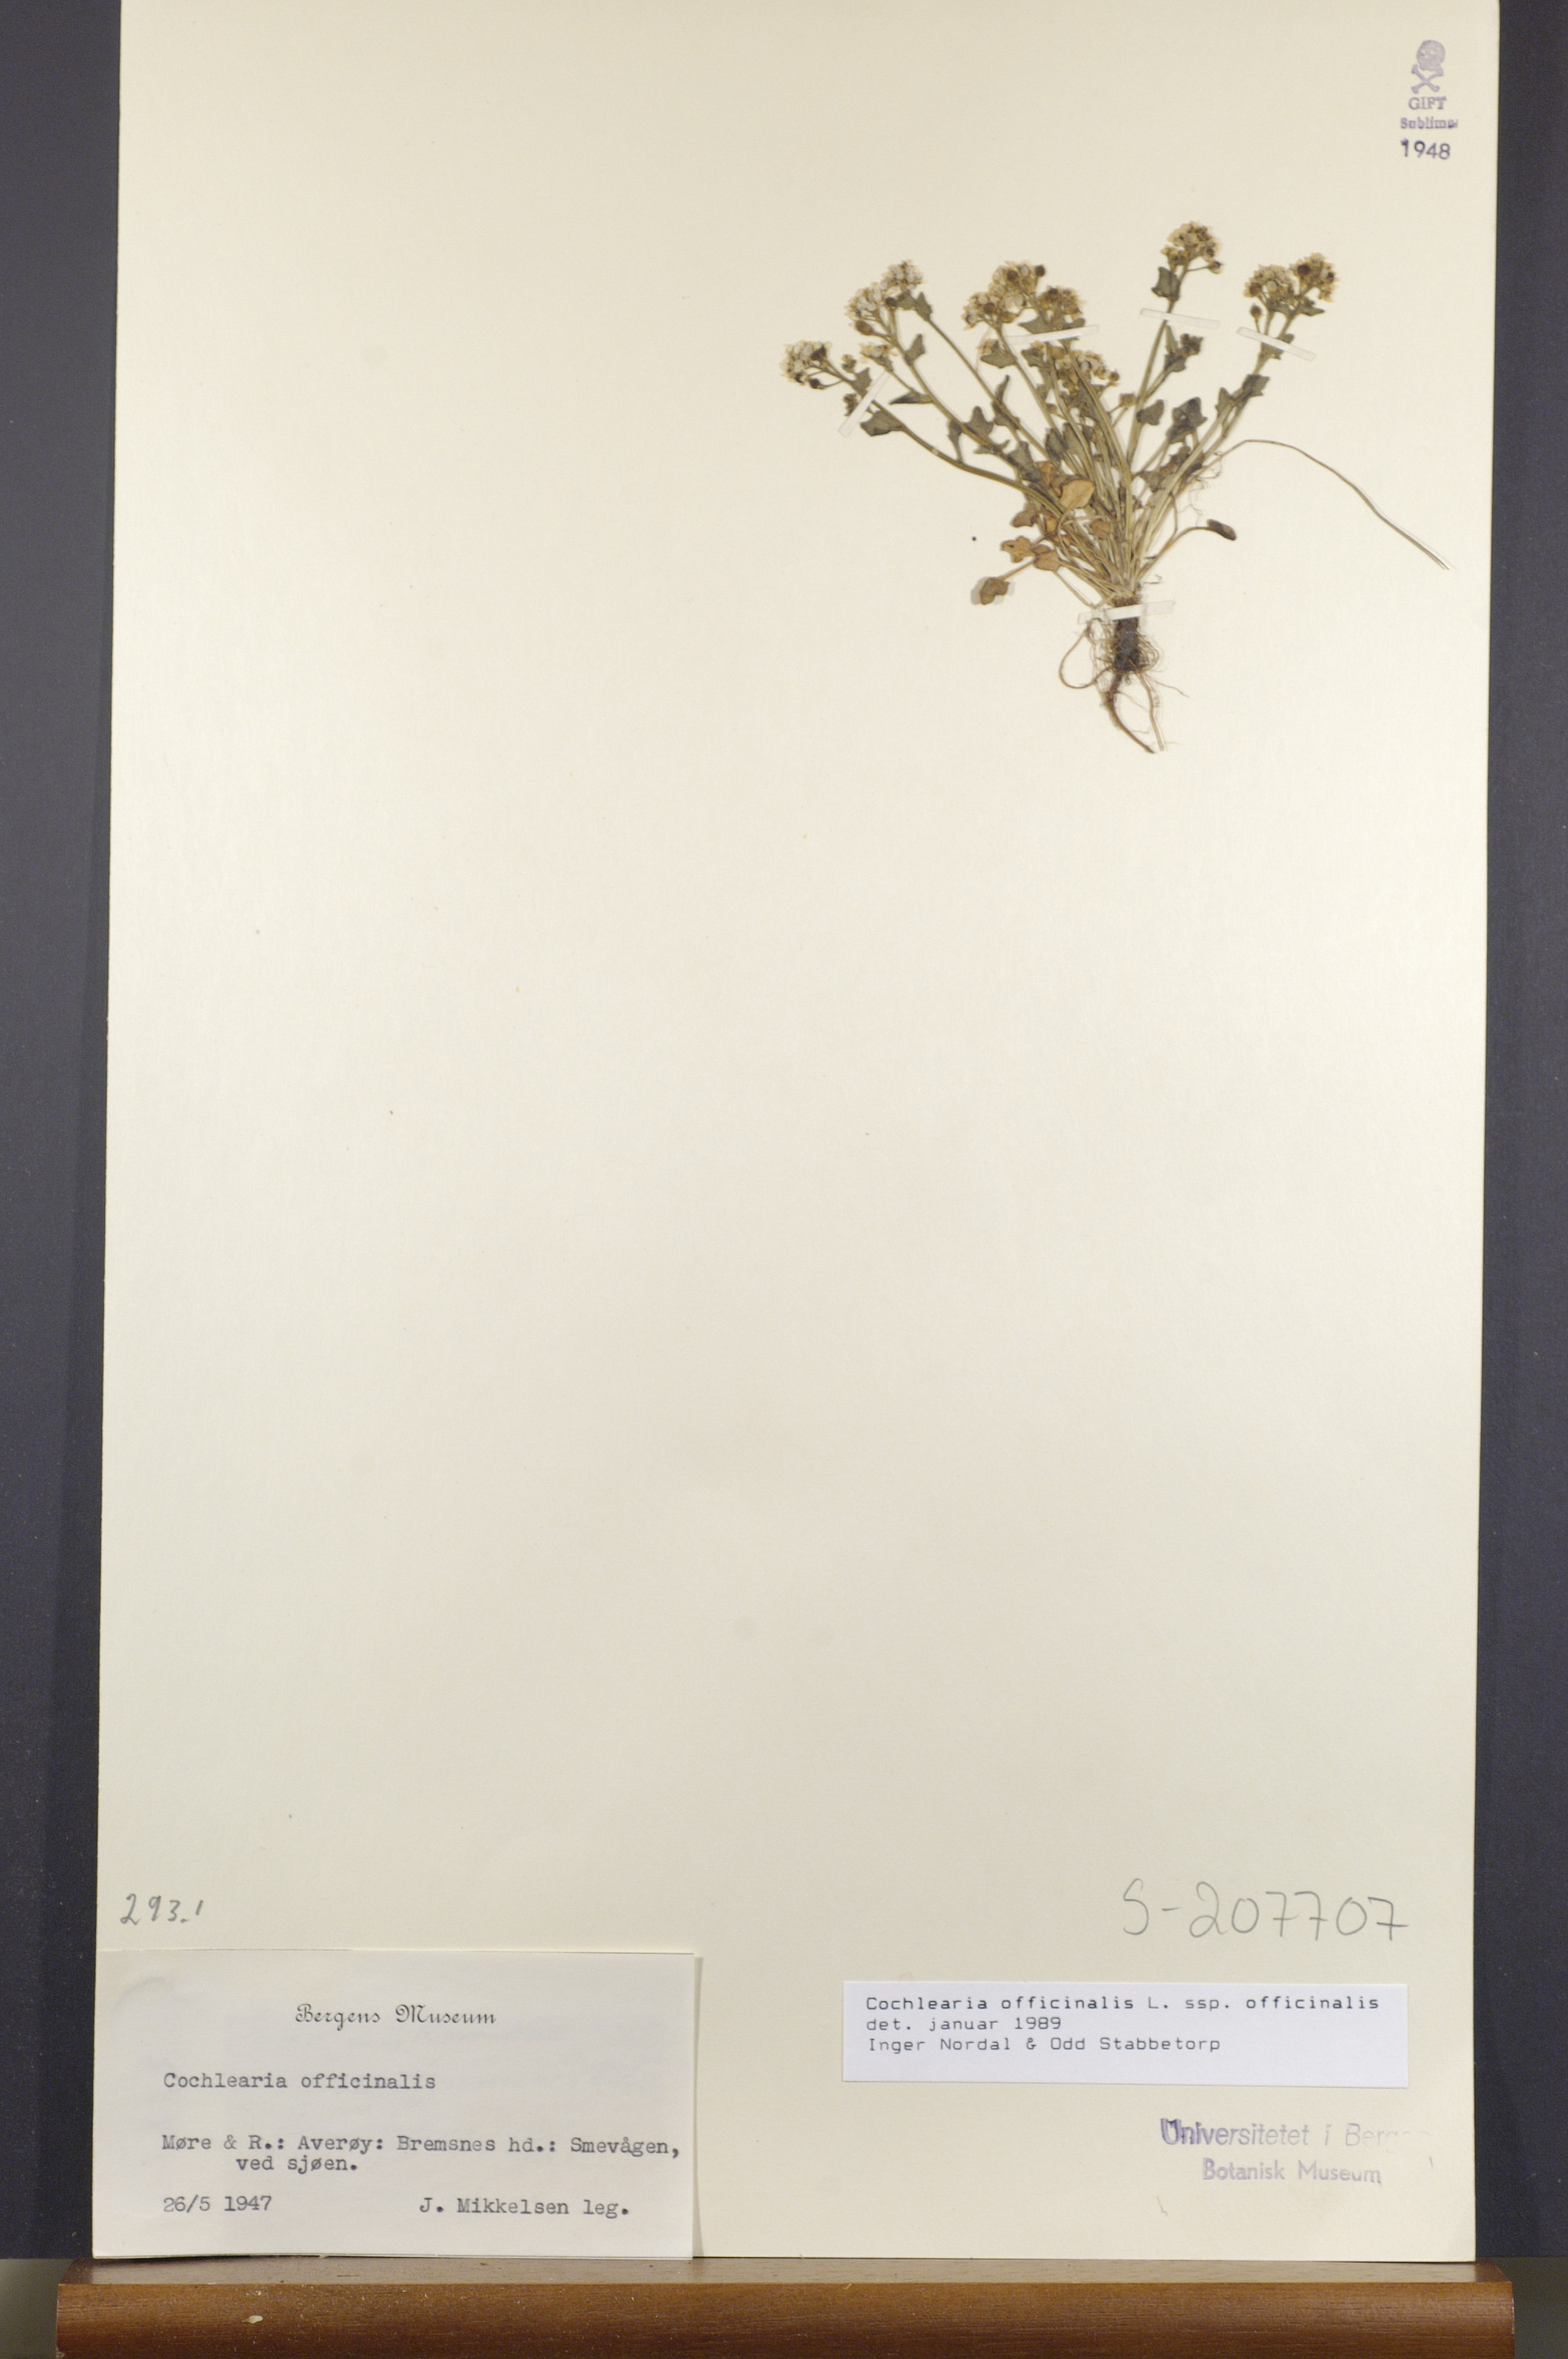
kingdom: Plantae
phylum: Tracheophyta
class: Magnoliopsida
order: Brassicales
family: Brassicaceae
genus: Cochlearia
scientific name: Cochlearia officinalis
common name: Scurvy-grass
